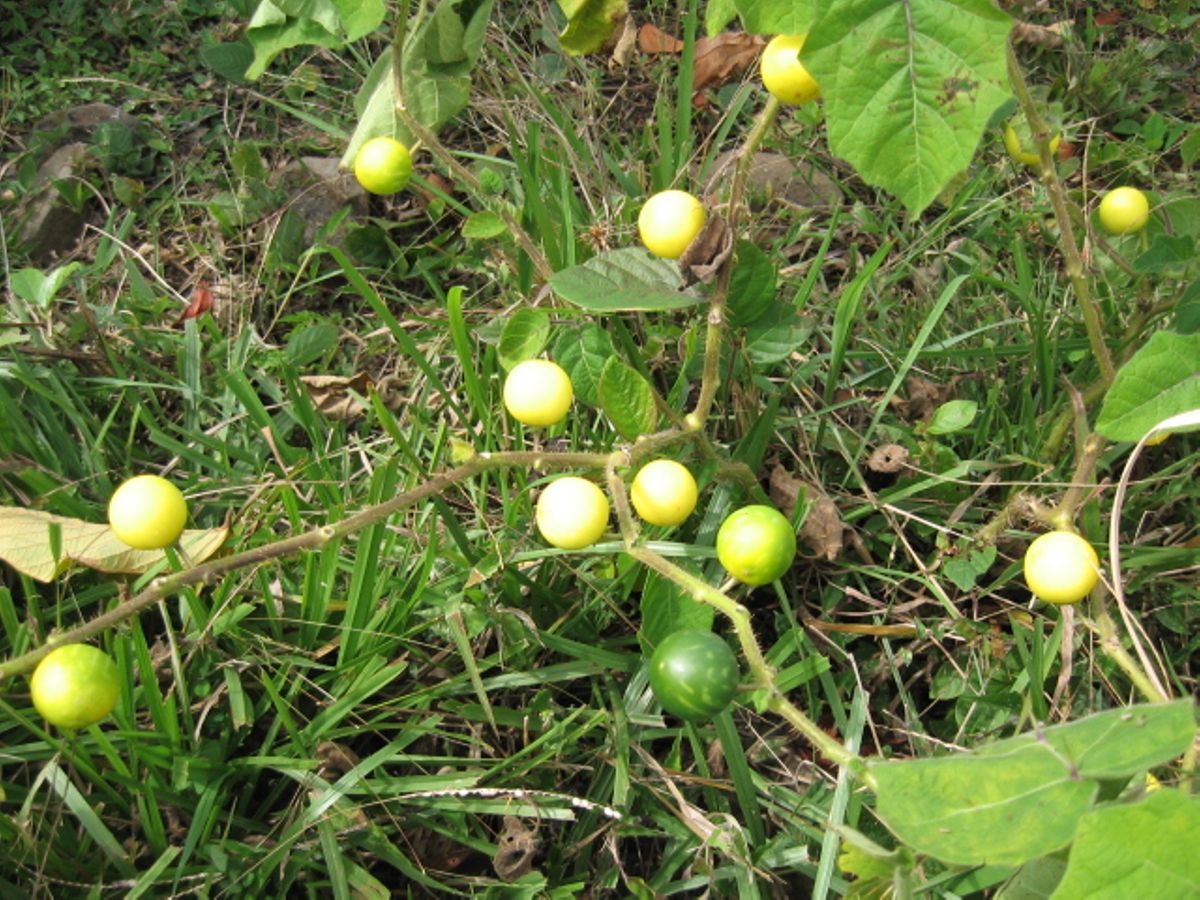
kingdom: Plantae
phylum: Tracheophyta
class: Magnoliopsida
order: Solanales
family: Solanaceae
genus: Solanum
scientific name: Solanum myriacanthum
